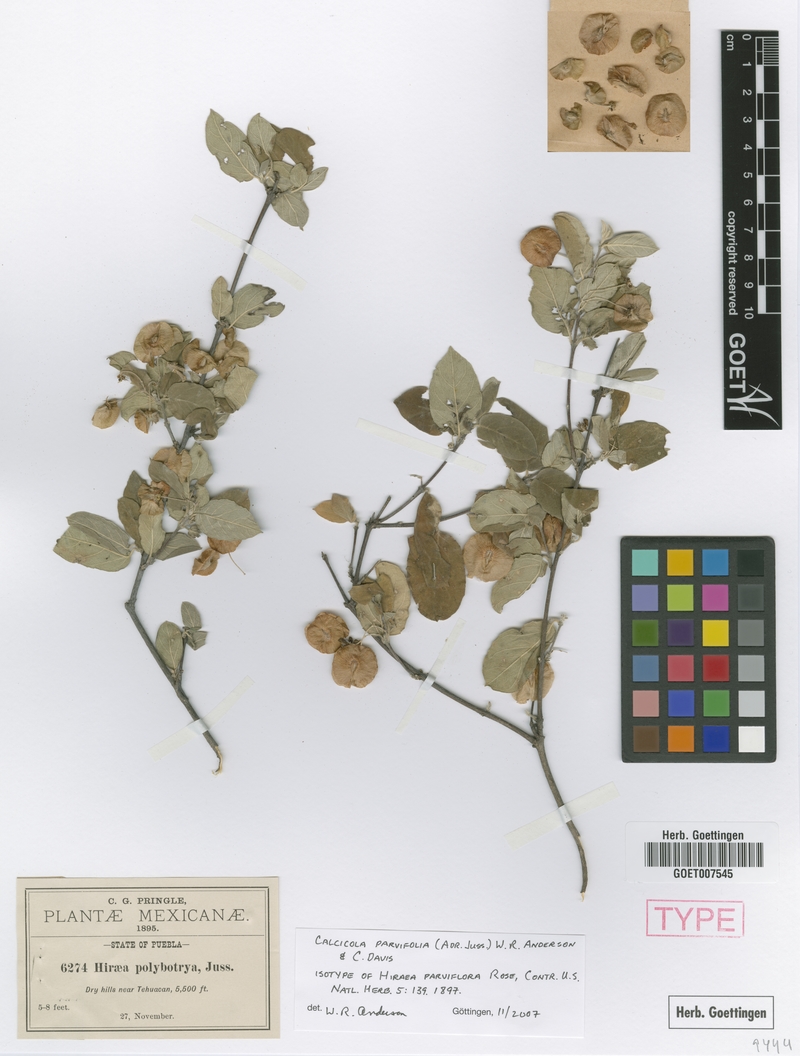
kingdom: Plantae
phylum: Tracheophyta
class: Magnoliopsida
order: Malpighiales
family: Malpighiaceae
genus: Calcicola
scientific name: Calcicola parvifolia
